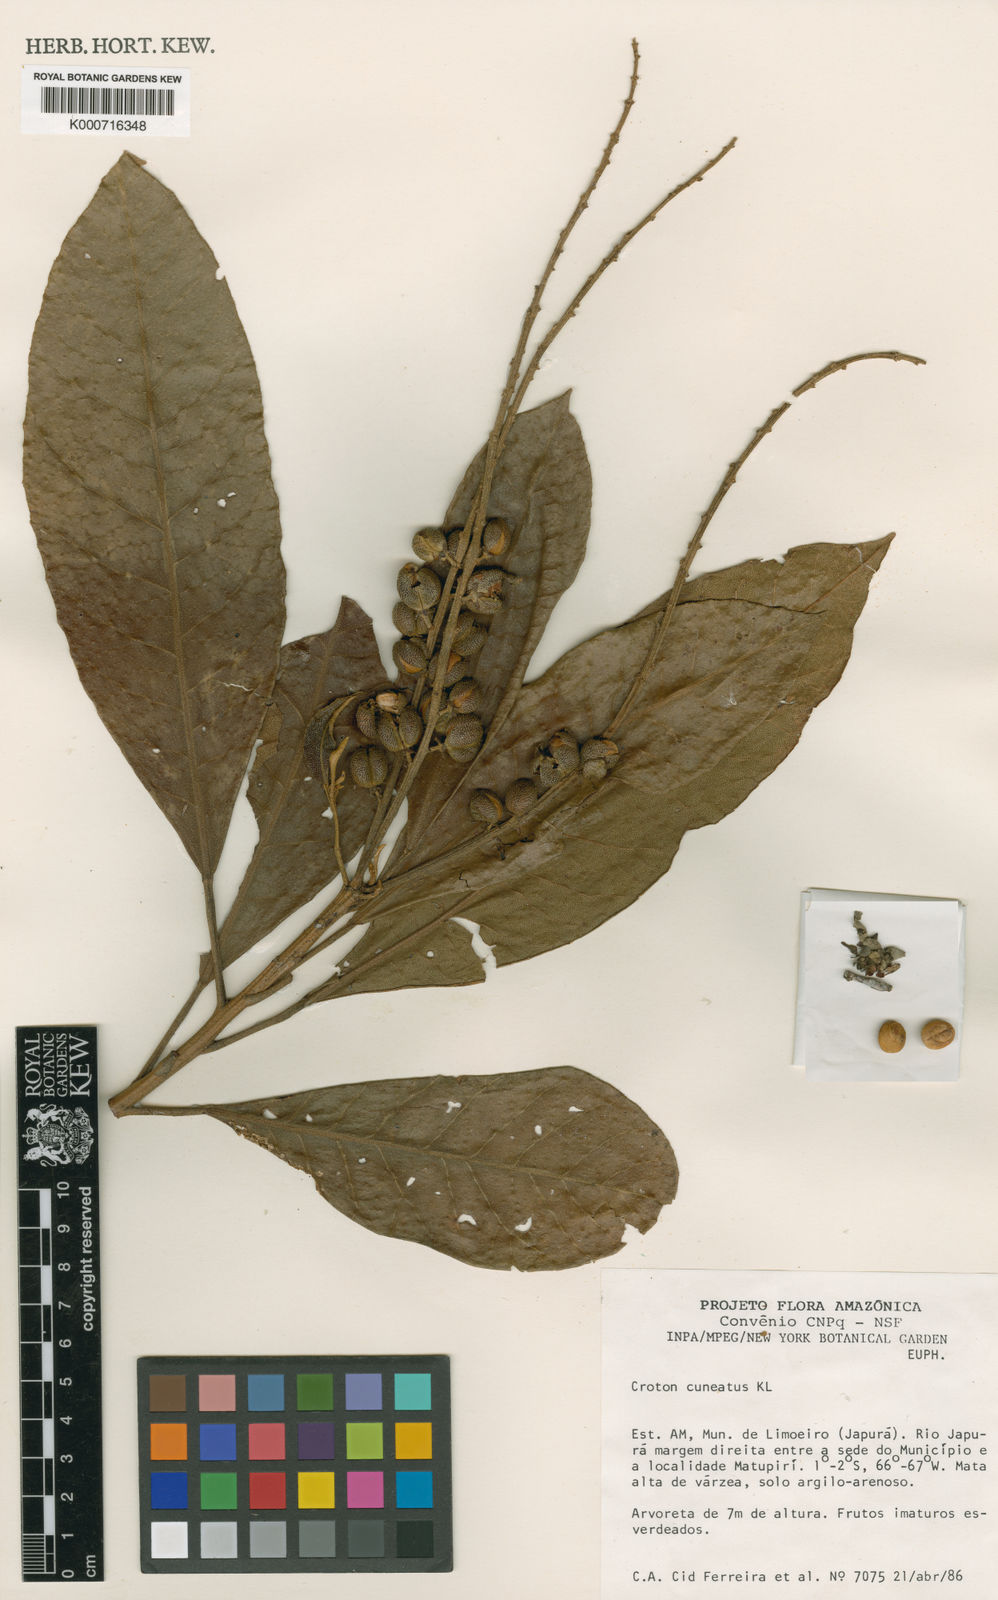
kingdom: Plantae
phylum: Tracheophyta
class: Magnoliopsida
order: Malpighiales
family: Euphorbiaceae
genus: Croton
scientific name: Croton cuneatus
